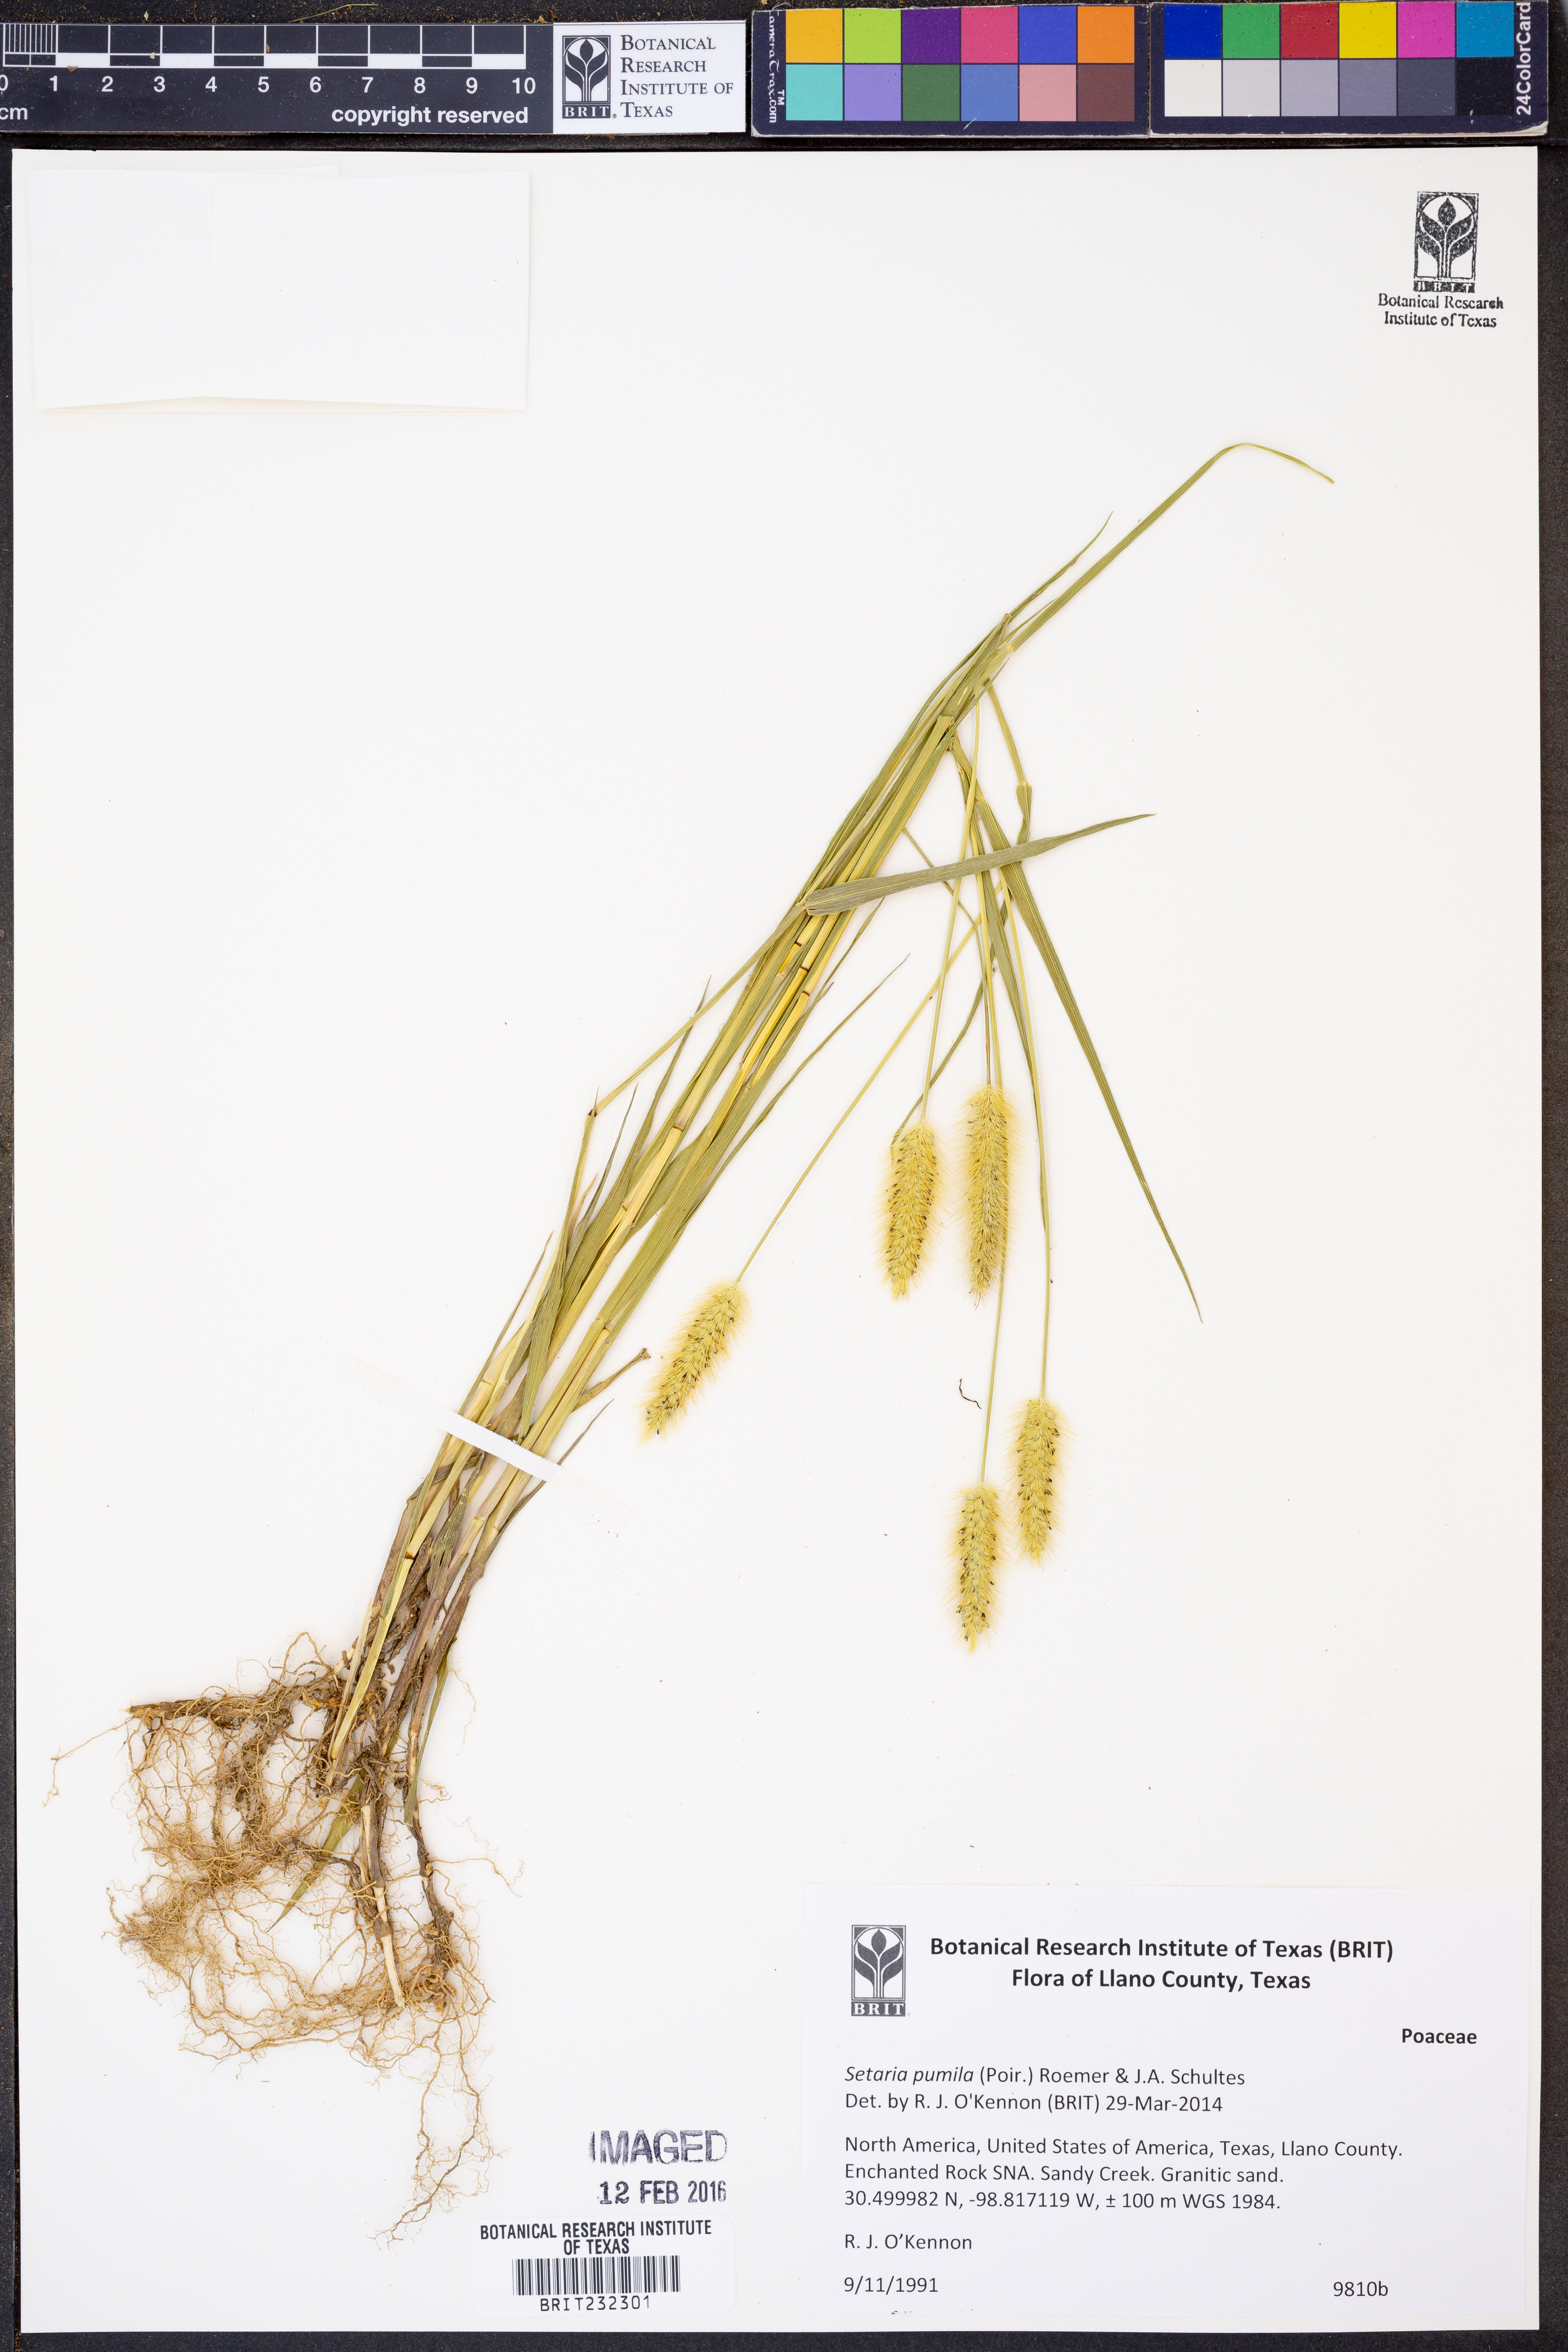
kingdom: Plantae
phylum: Tracheophyta
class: Liliopsida
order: Poales
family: Poaceae
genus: Setaria
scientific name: Setaria pumila
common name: Yellow bristle-grass
